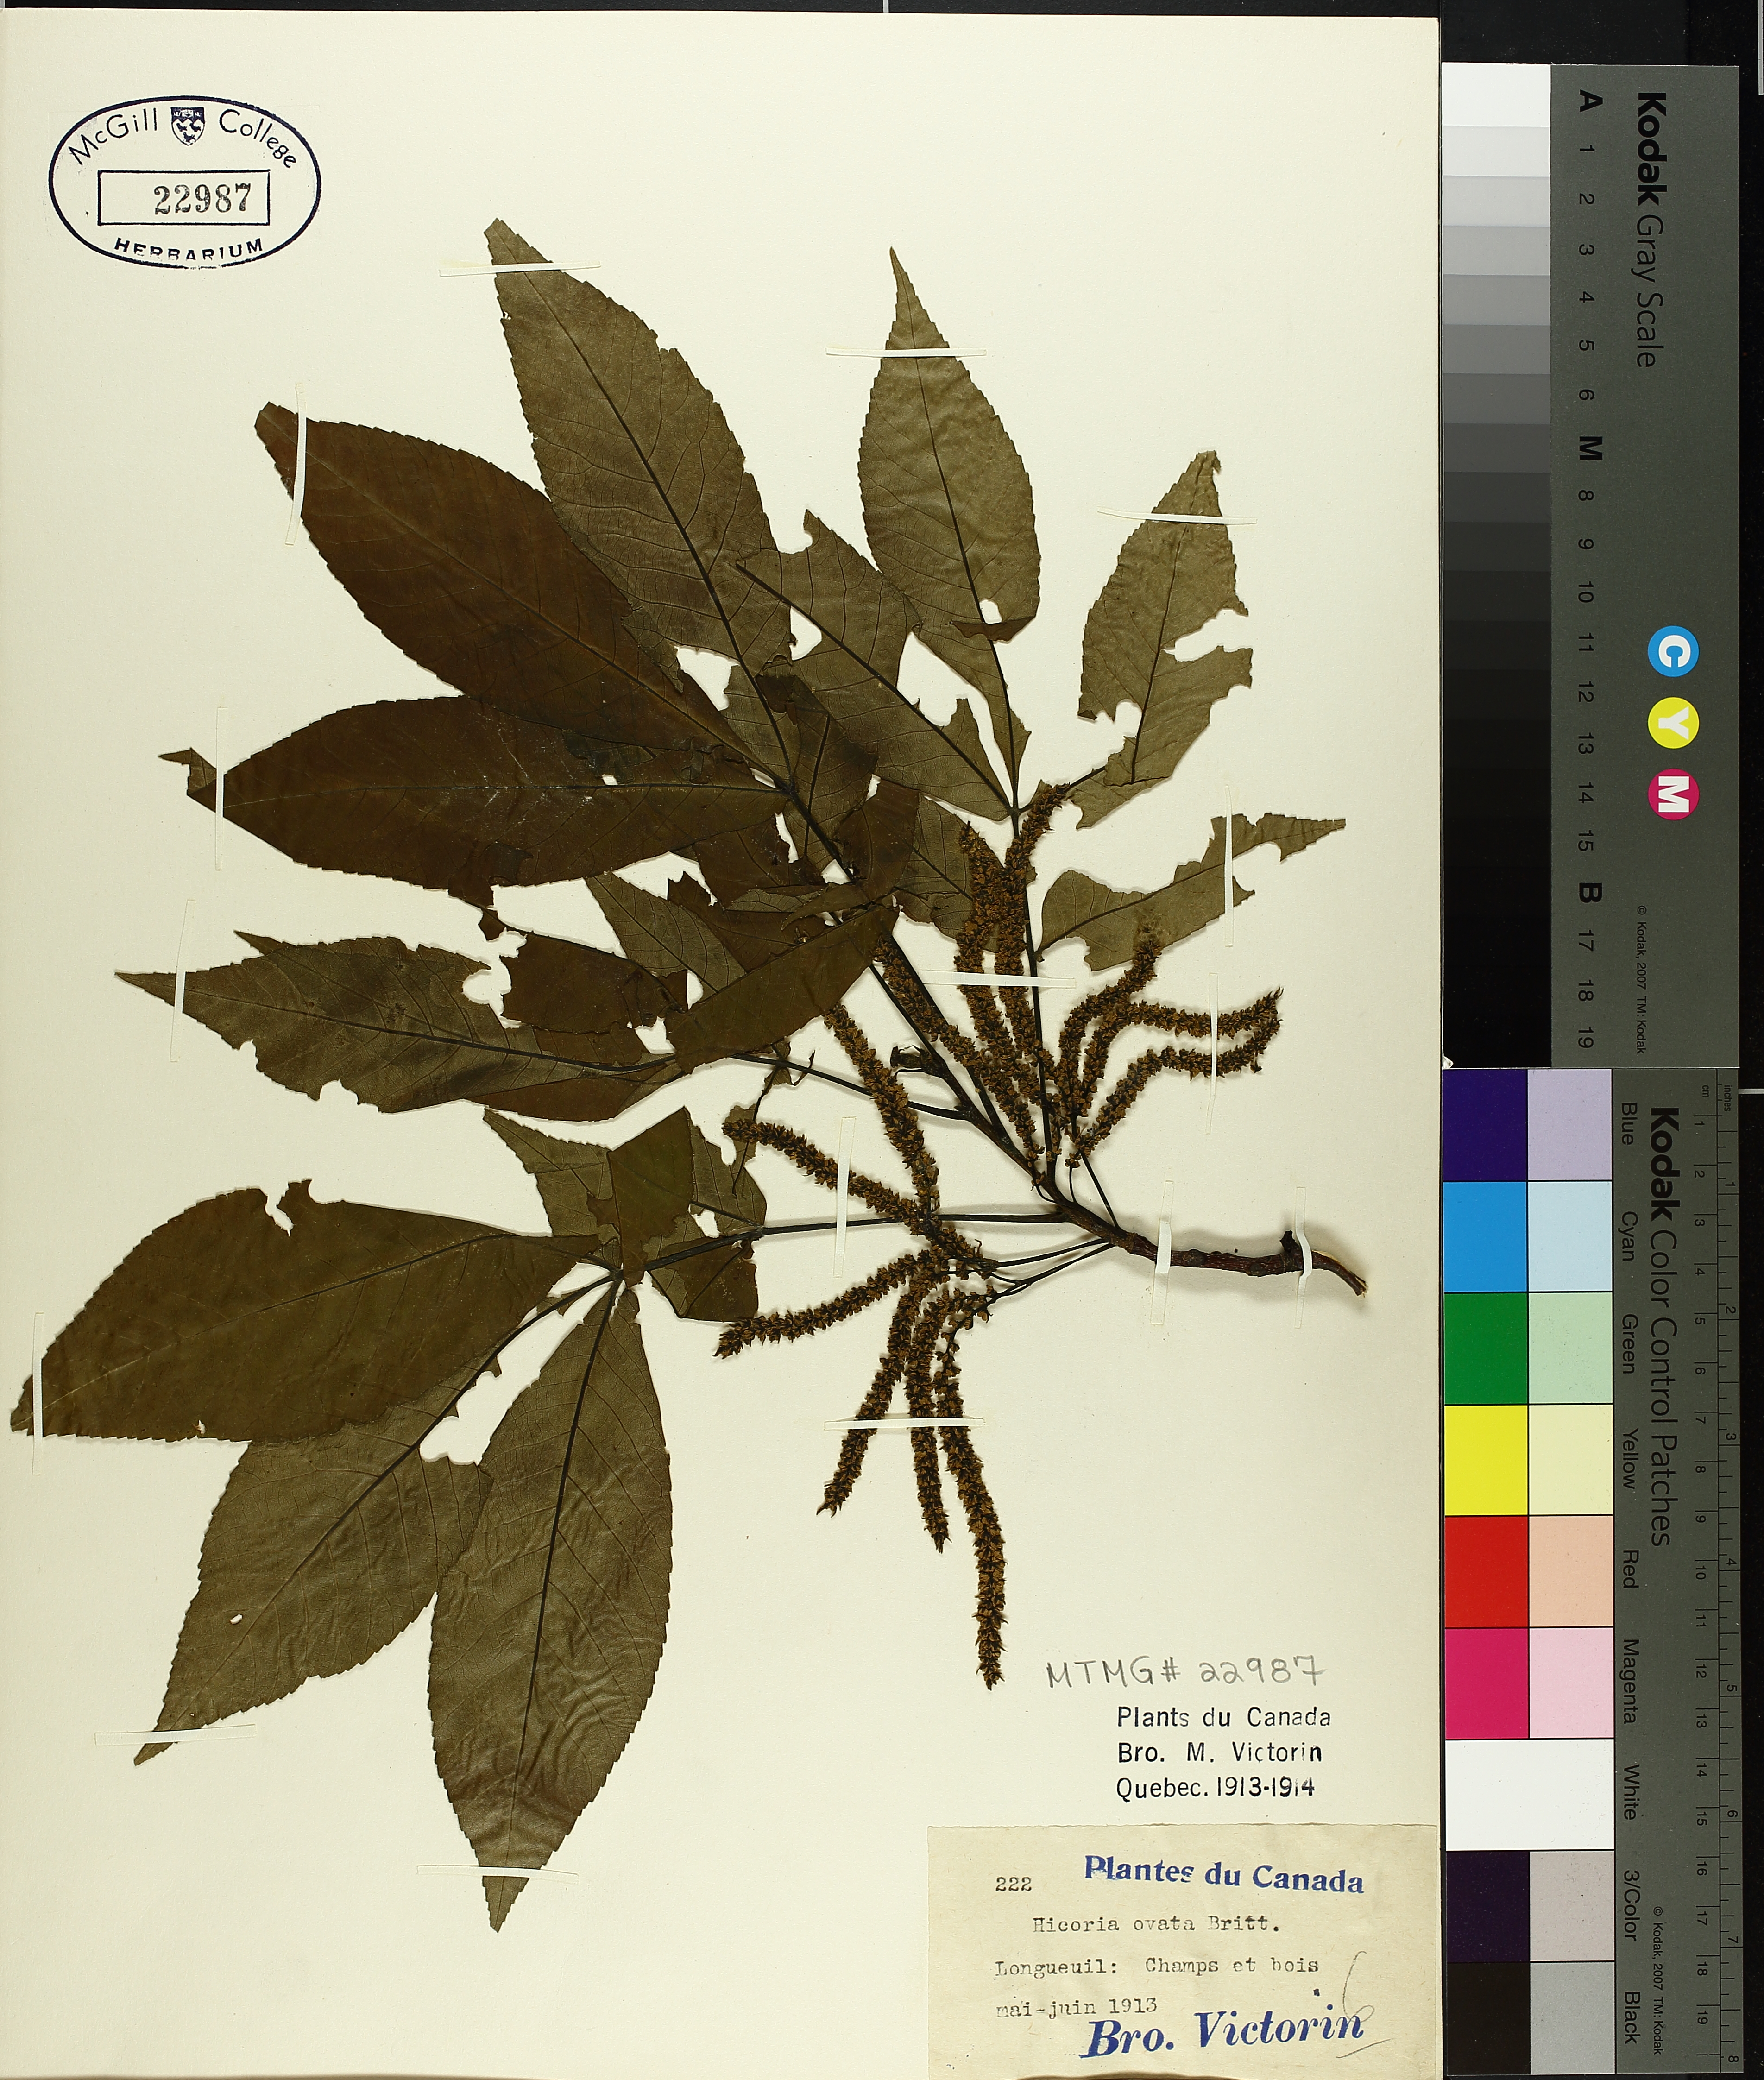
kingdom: Plantae
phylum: Tracheophyta
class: Magnoliopsida
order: Fagales
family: Juglandaceae
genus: Carya
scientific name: Carya ovata
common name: Shagbark hickory
